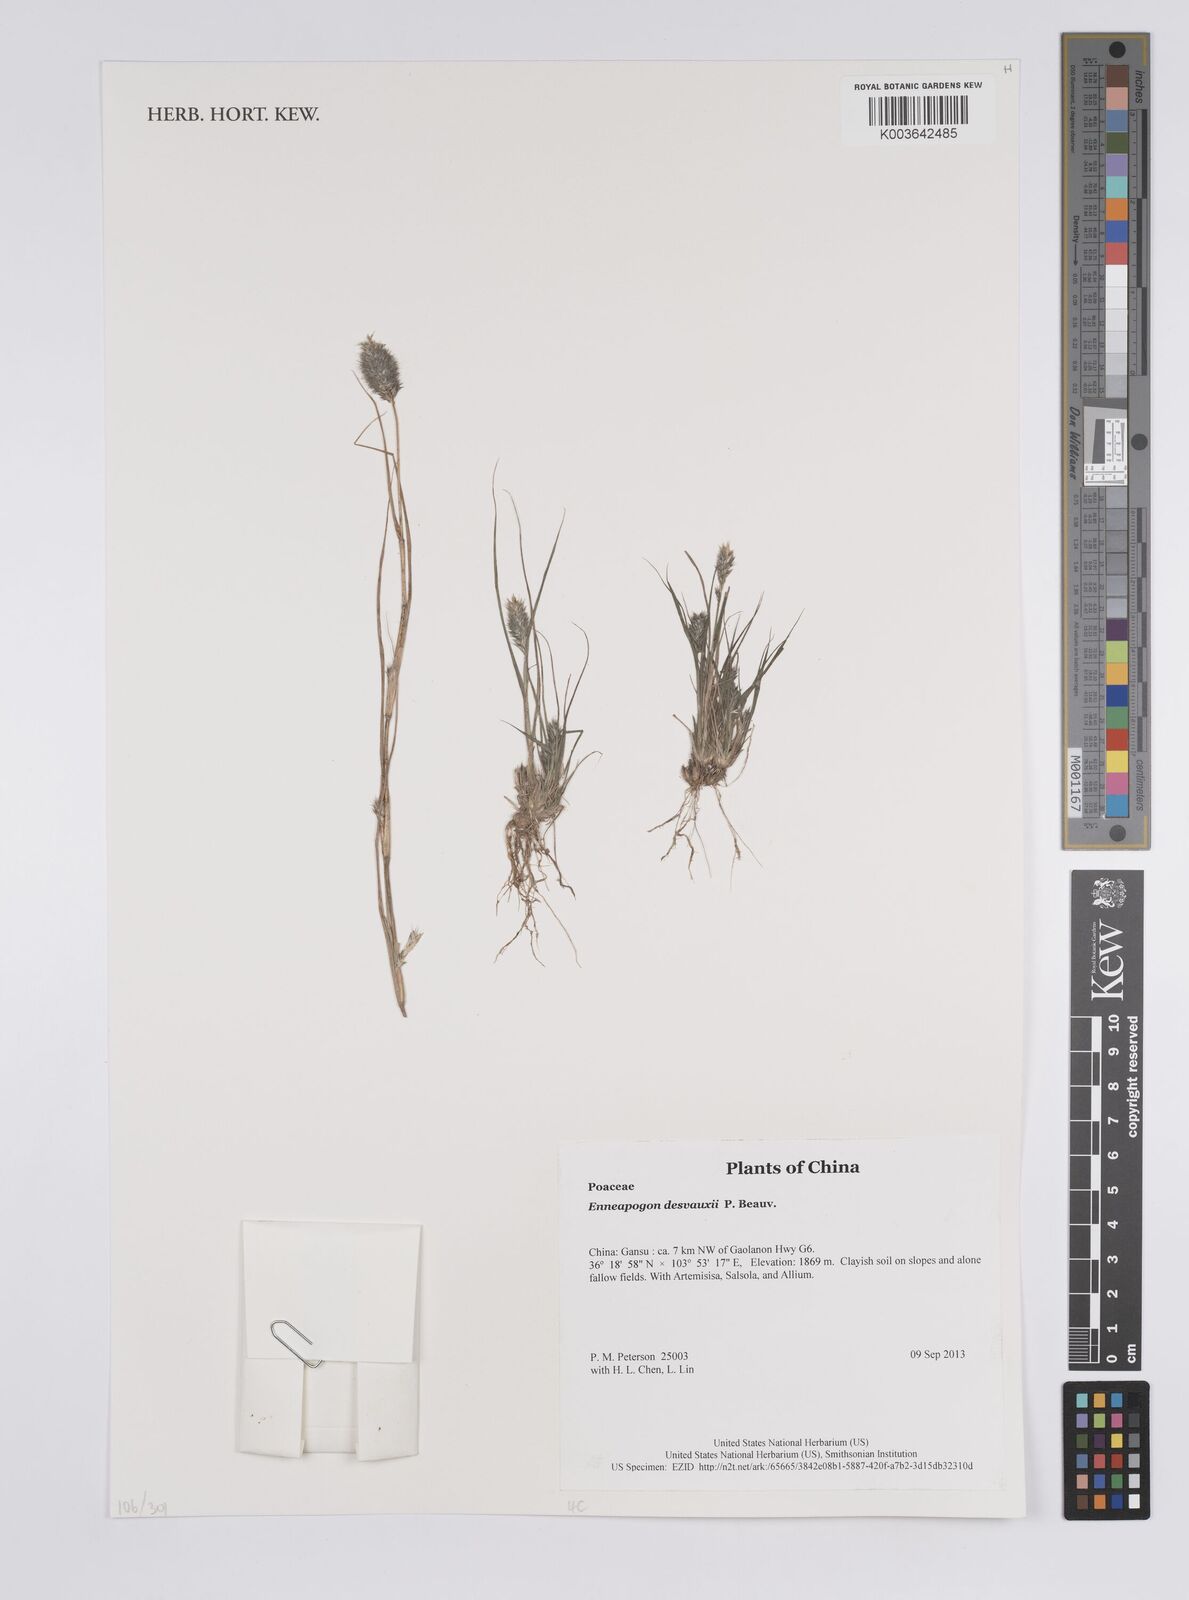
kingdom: Plantae
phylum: Tracheophyta
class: Liliopsida
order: Poales
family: Poaceae
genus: Enneapogon
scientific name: Enneapogon desvauxii
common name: Feather pappus grass
